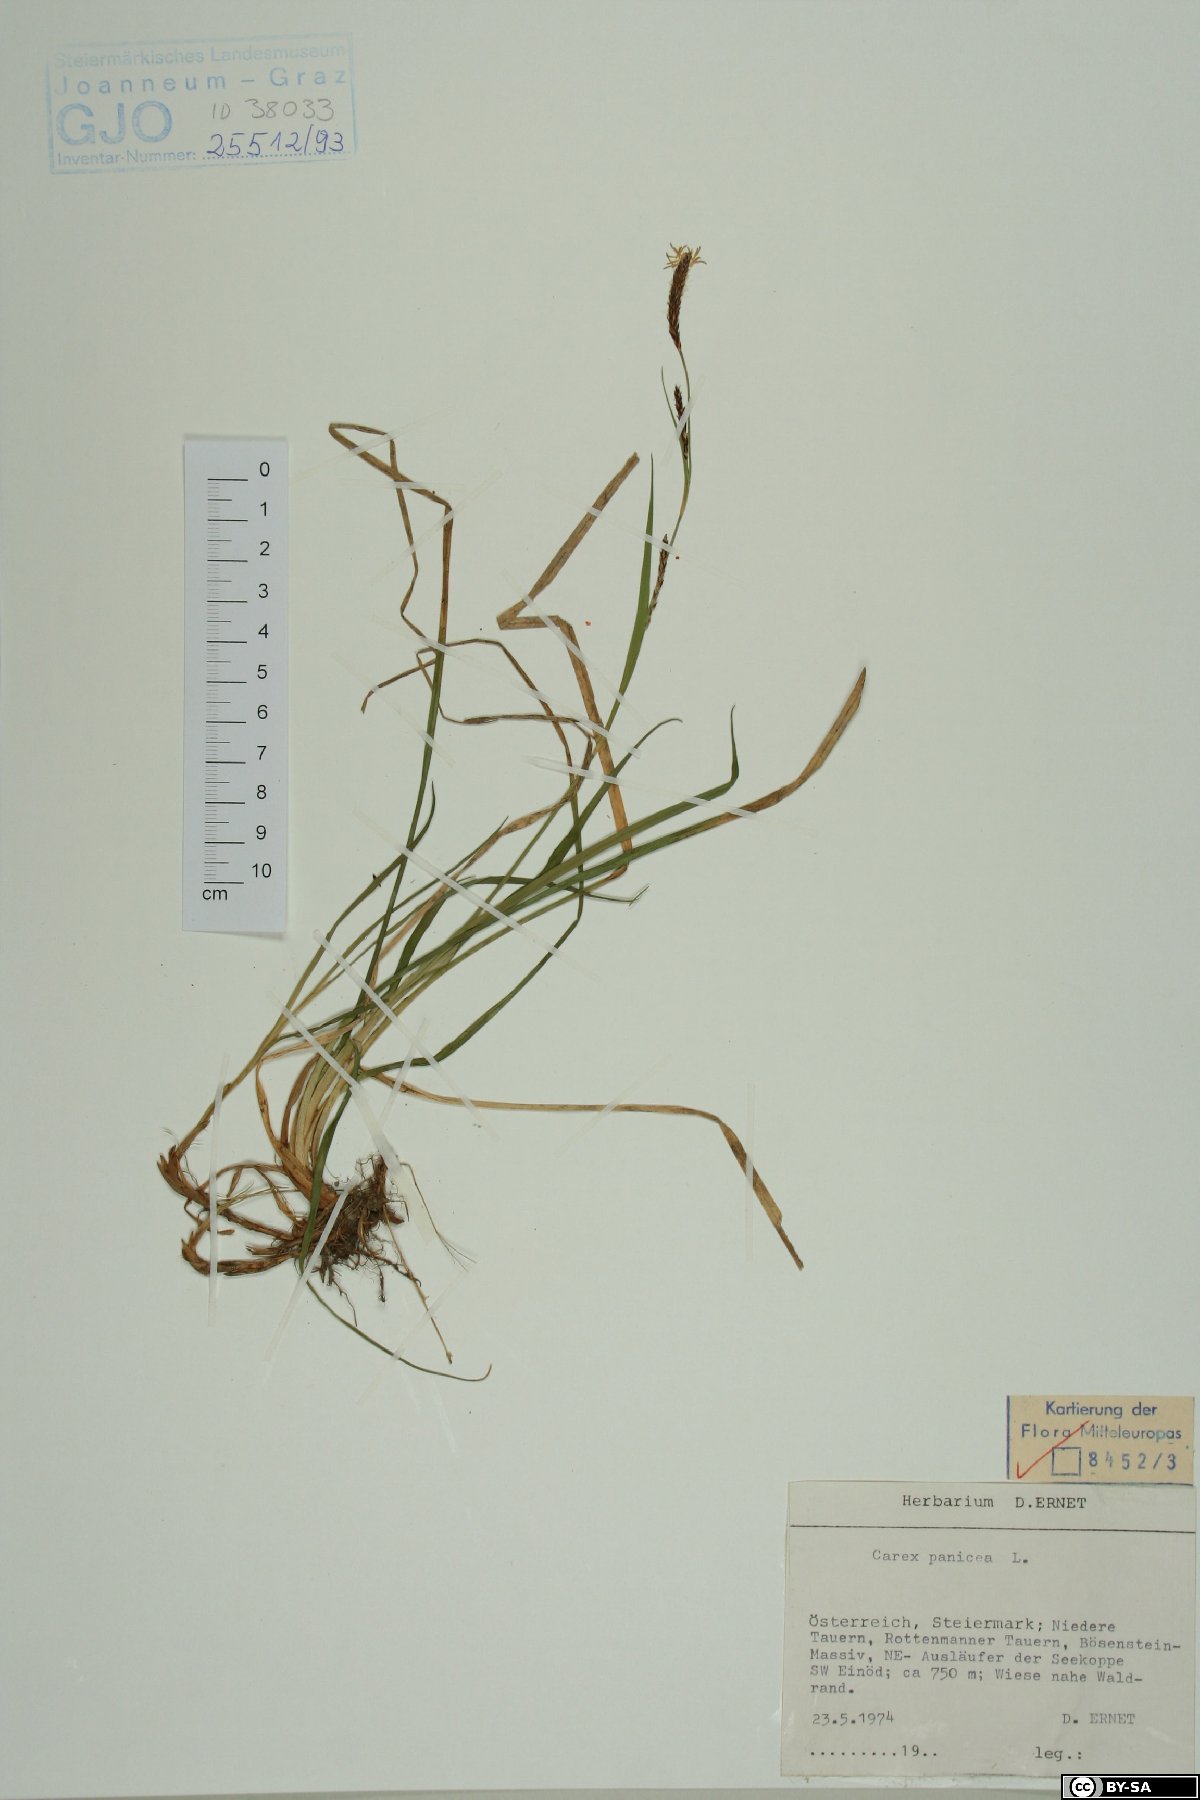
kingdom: Plantae
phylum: Tracheophyta
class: Liliopsida
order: Poales
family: Cyperaceae
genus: Carex
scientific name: Carex panicea
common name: Carnation sedge
